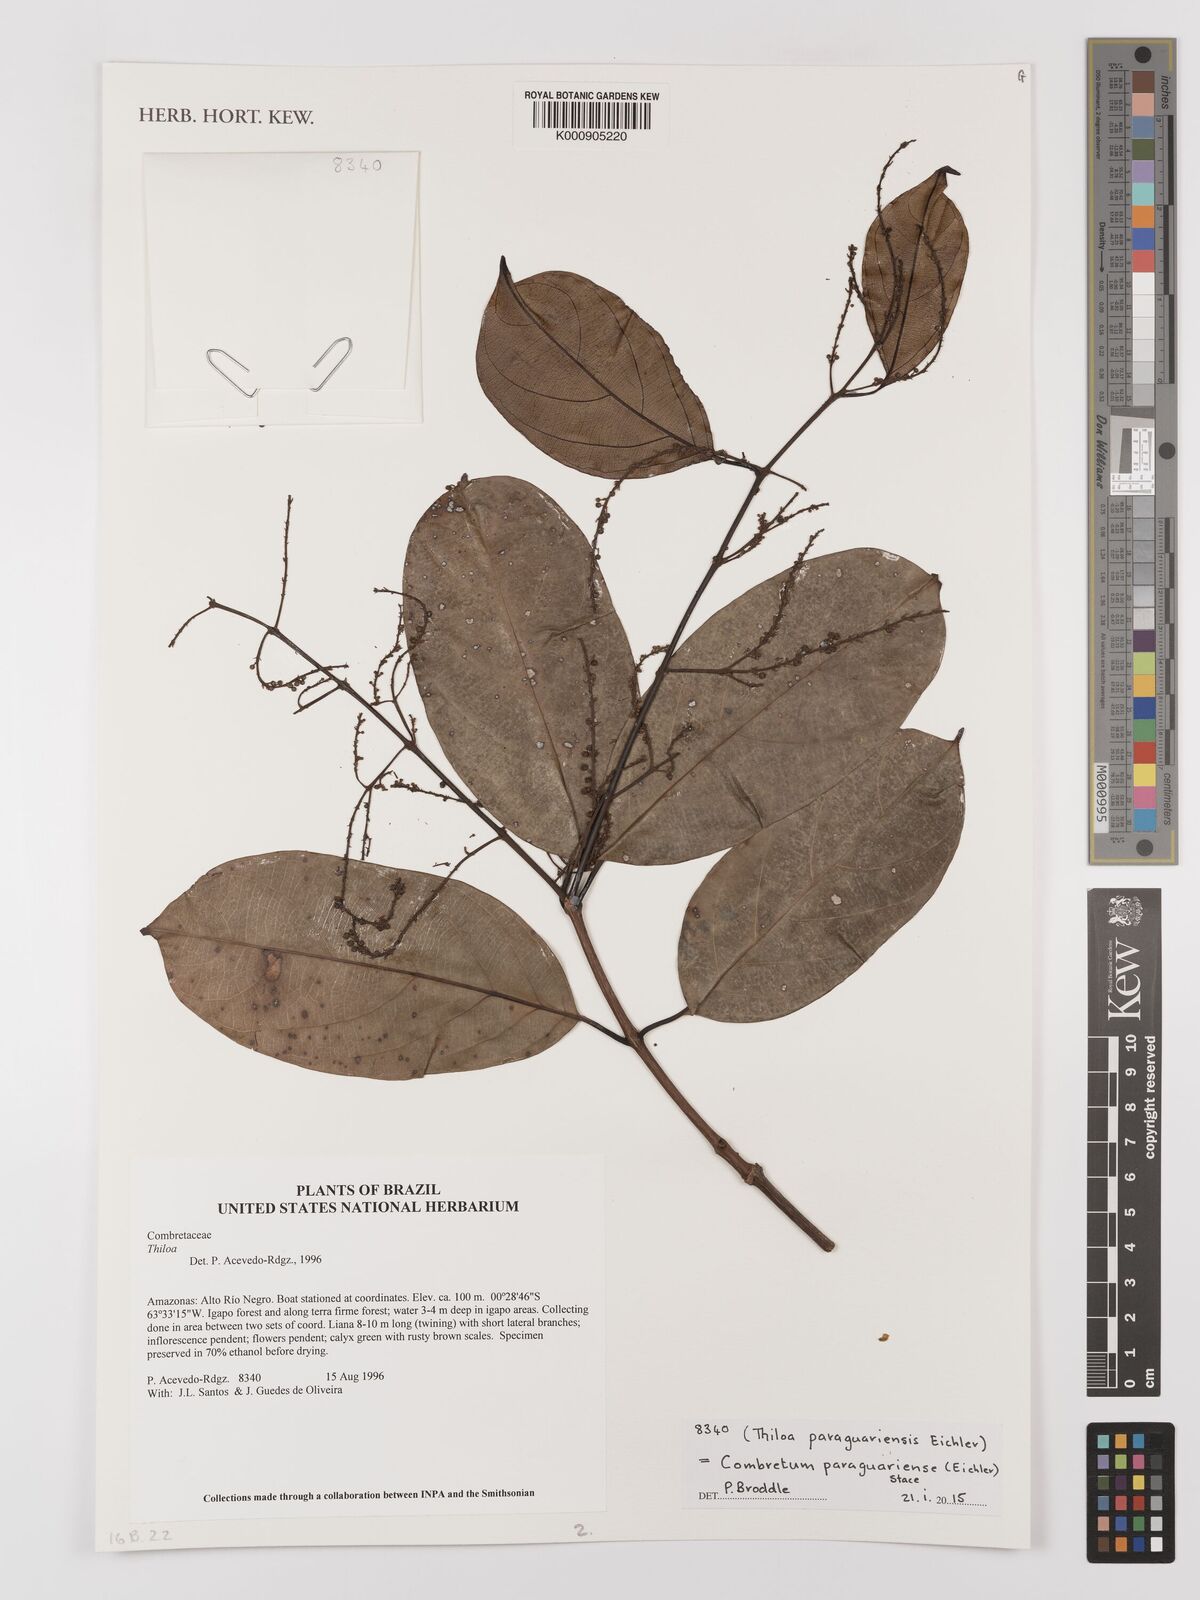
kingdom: Plantae
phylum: Tracheophyta
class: Magnoliopsida
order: Myrtales
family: Combretaceae
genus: Combretum
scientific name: Combretum paraguariense
